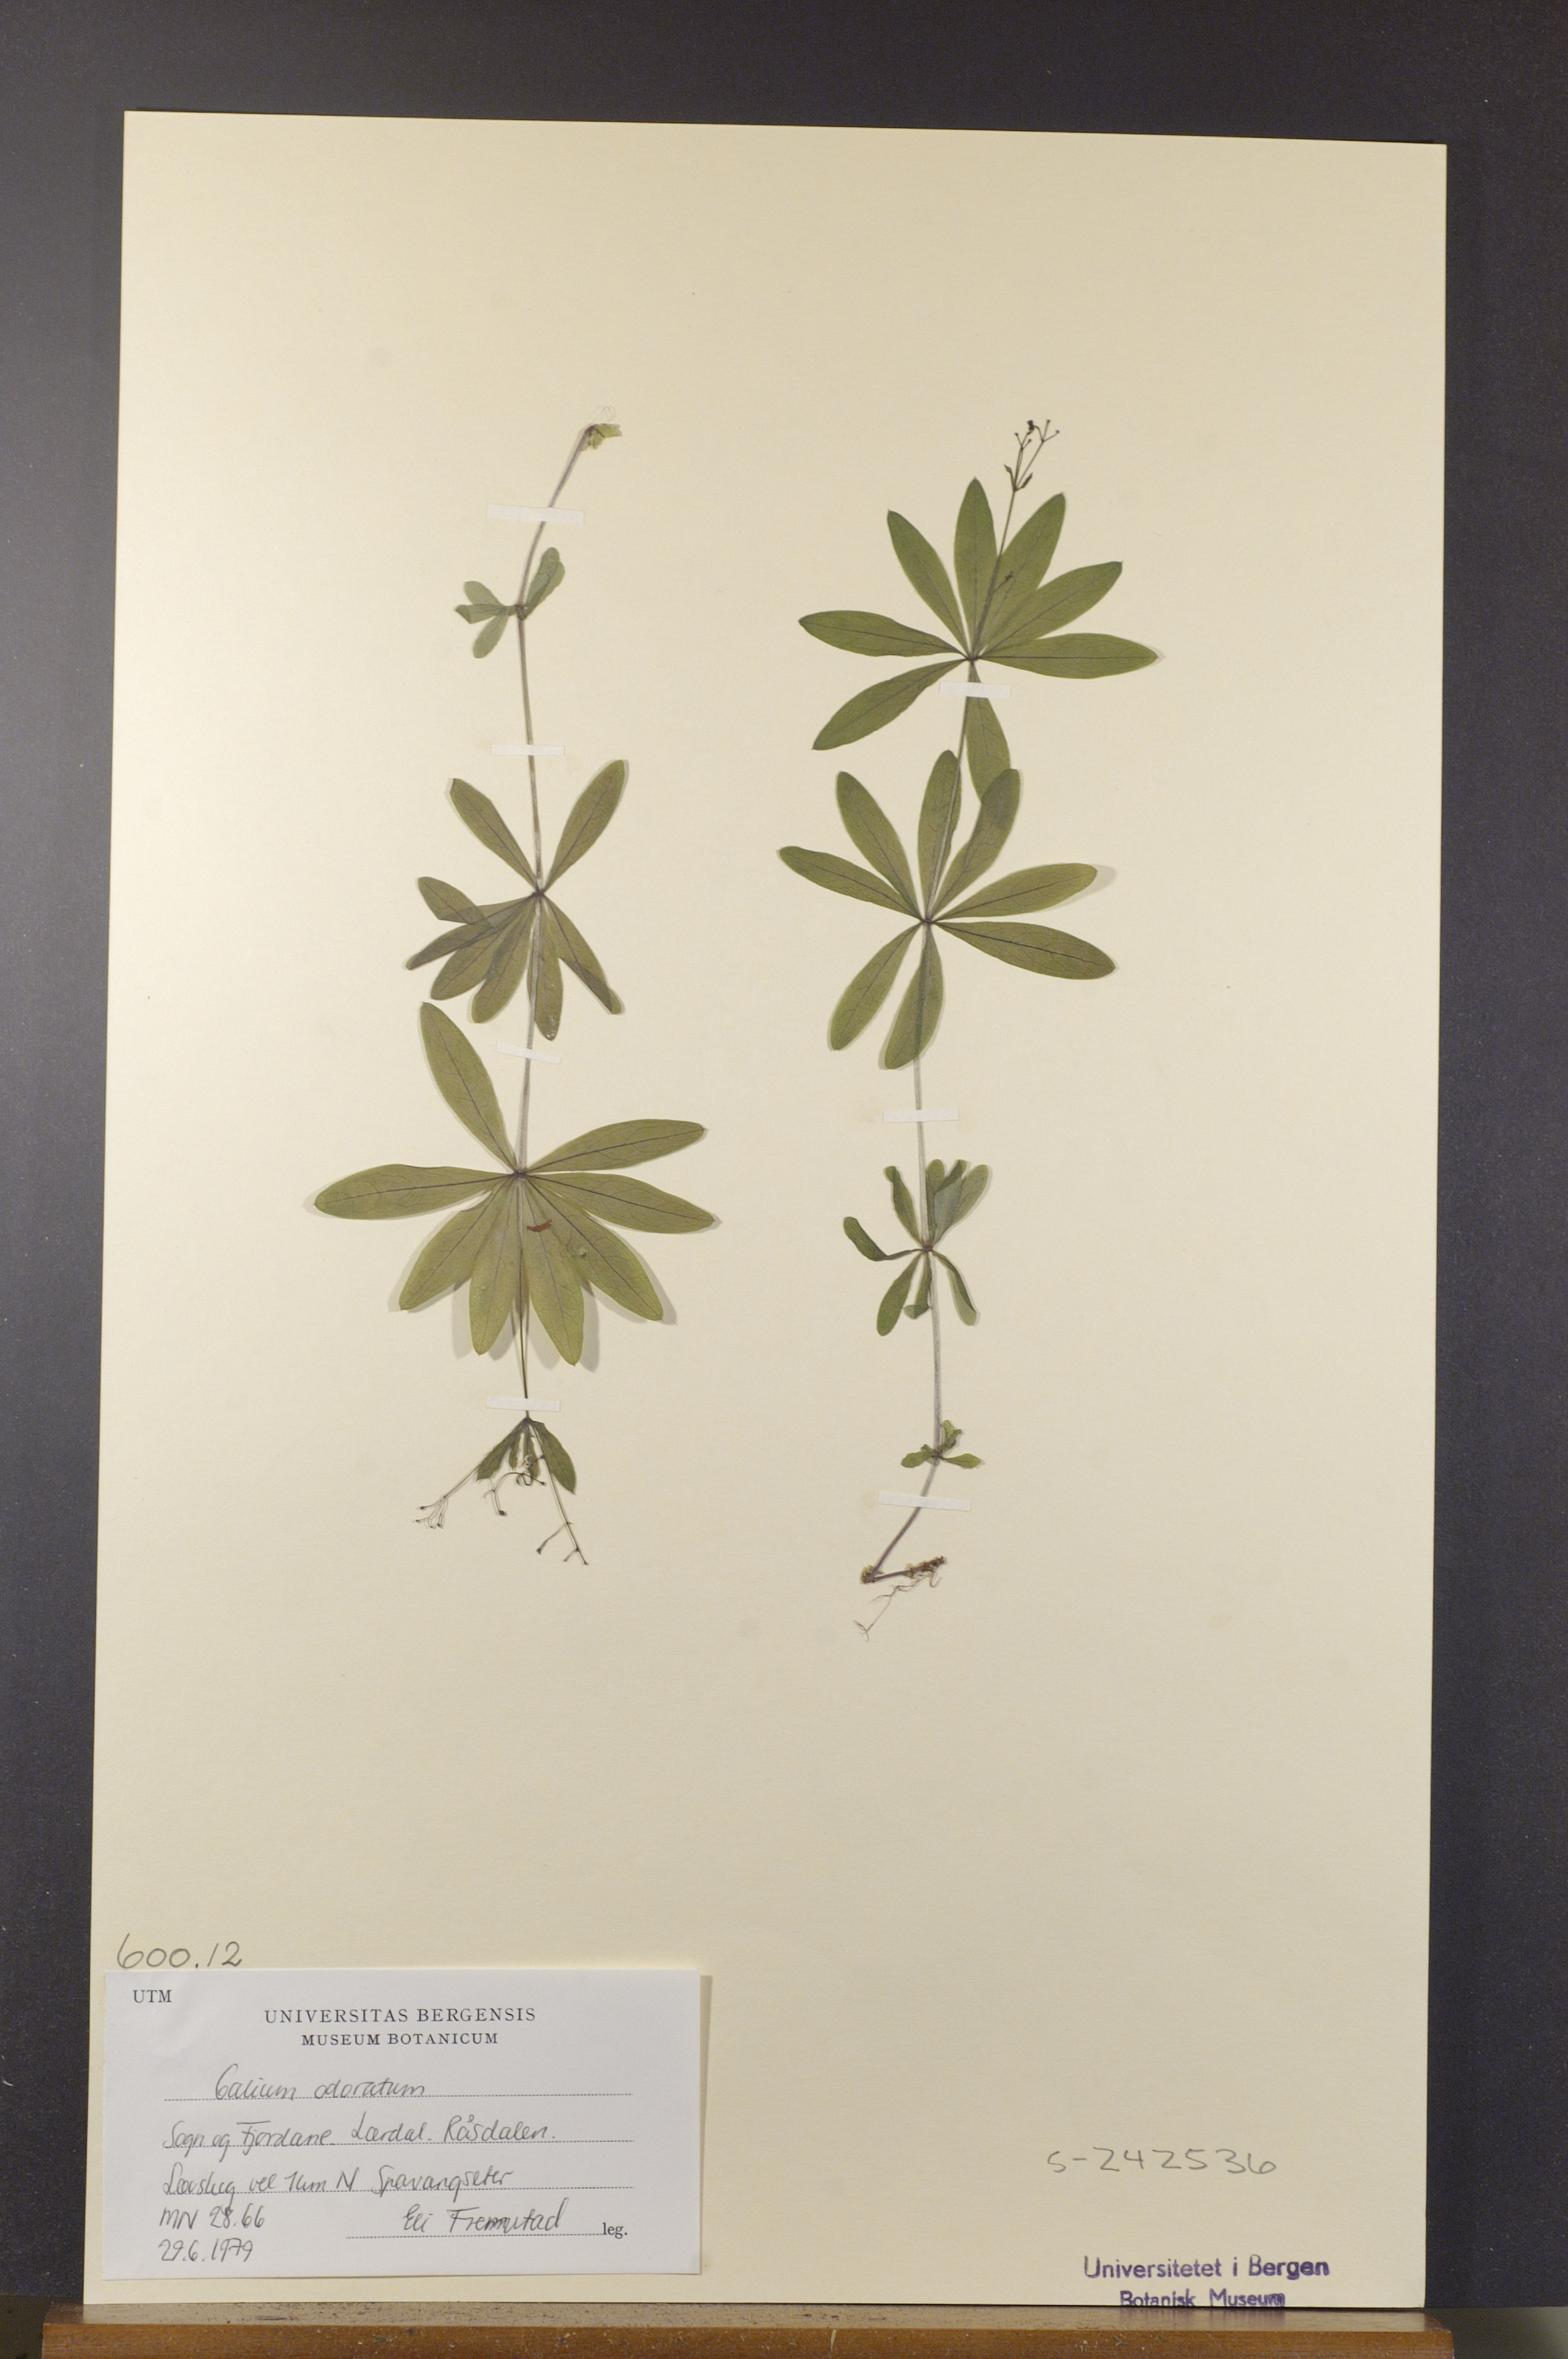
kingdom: Plantae
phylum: Tracheophyta
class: Magnoliopsida
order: Gentianales
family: Rubiaceae
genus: Galium
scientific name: Galium odoratum
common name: Sweet woodruff
